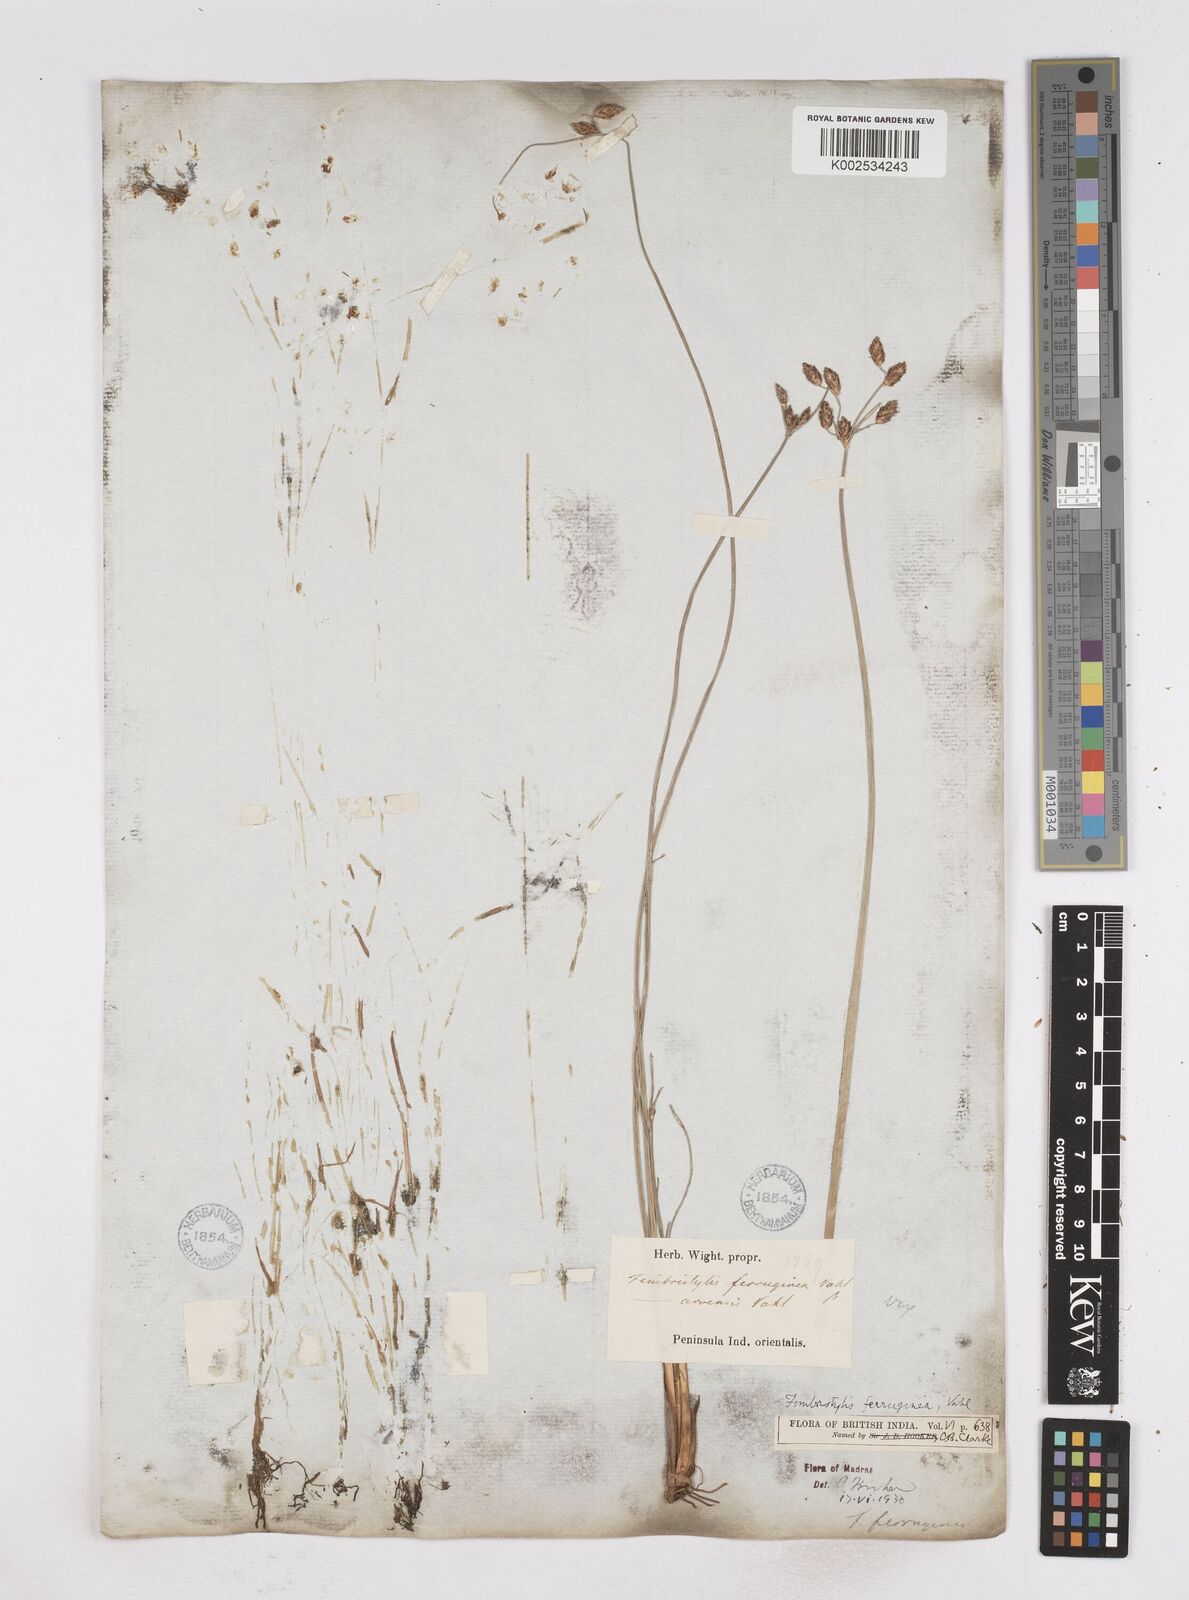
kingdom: Plantae
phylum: Tracheophyta
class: Liliopsida
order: Poales
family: Cyperaceae
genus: Fimbristylis
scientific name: Fimbristylis ferruginea
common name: West indian fimbry
